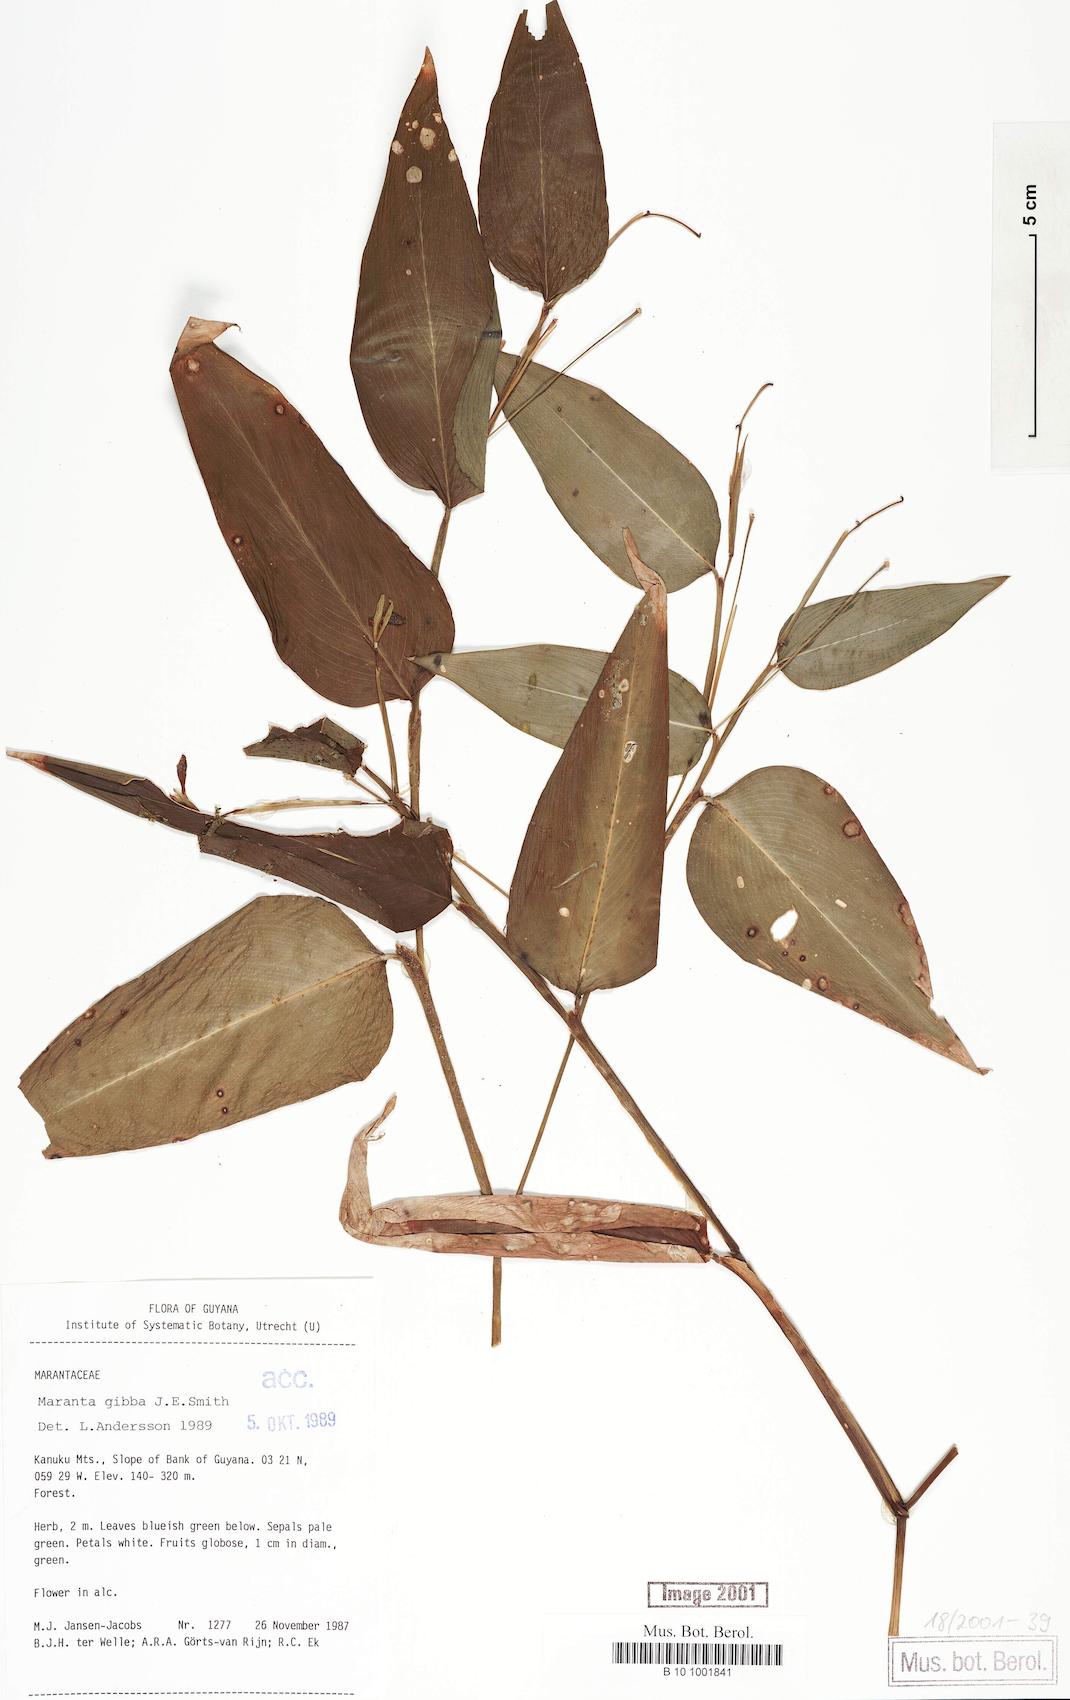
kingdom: Plantae
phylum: Tracheophyta
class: Liliopsida
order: Zingiberales
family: Marantaceae
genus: Maranta
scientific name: Maranta gibba
